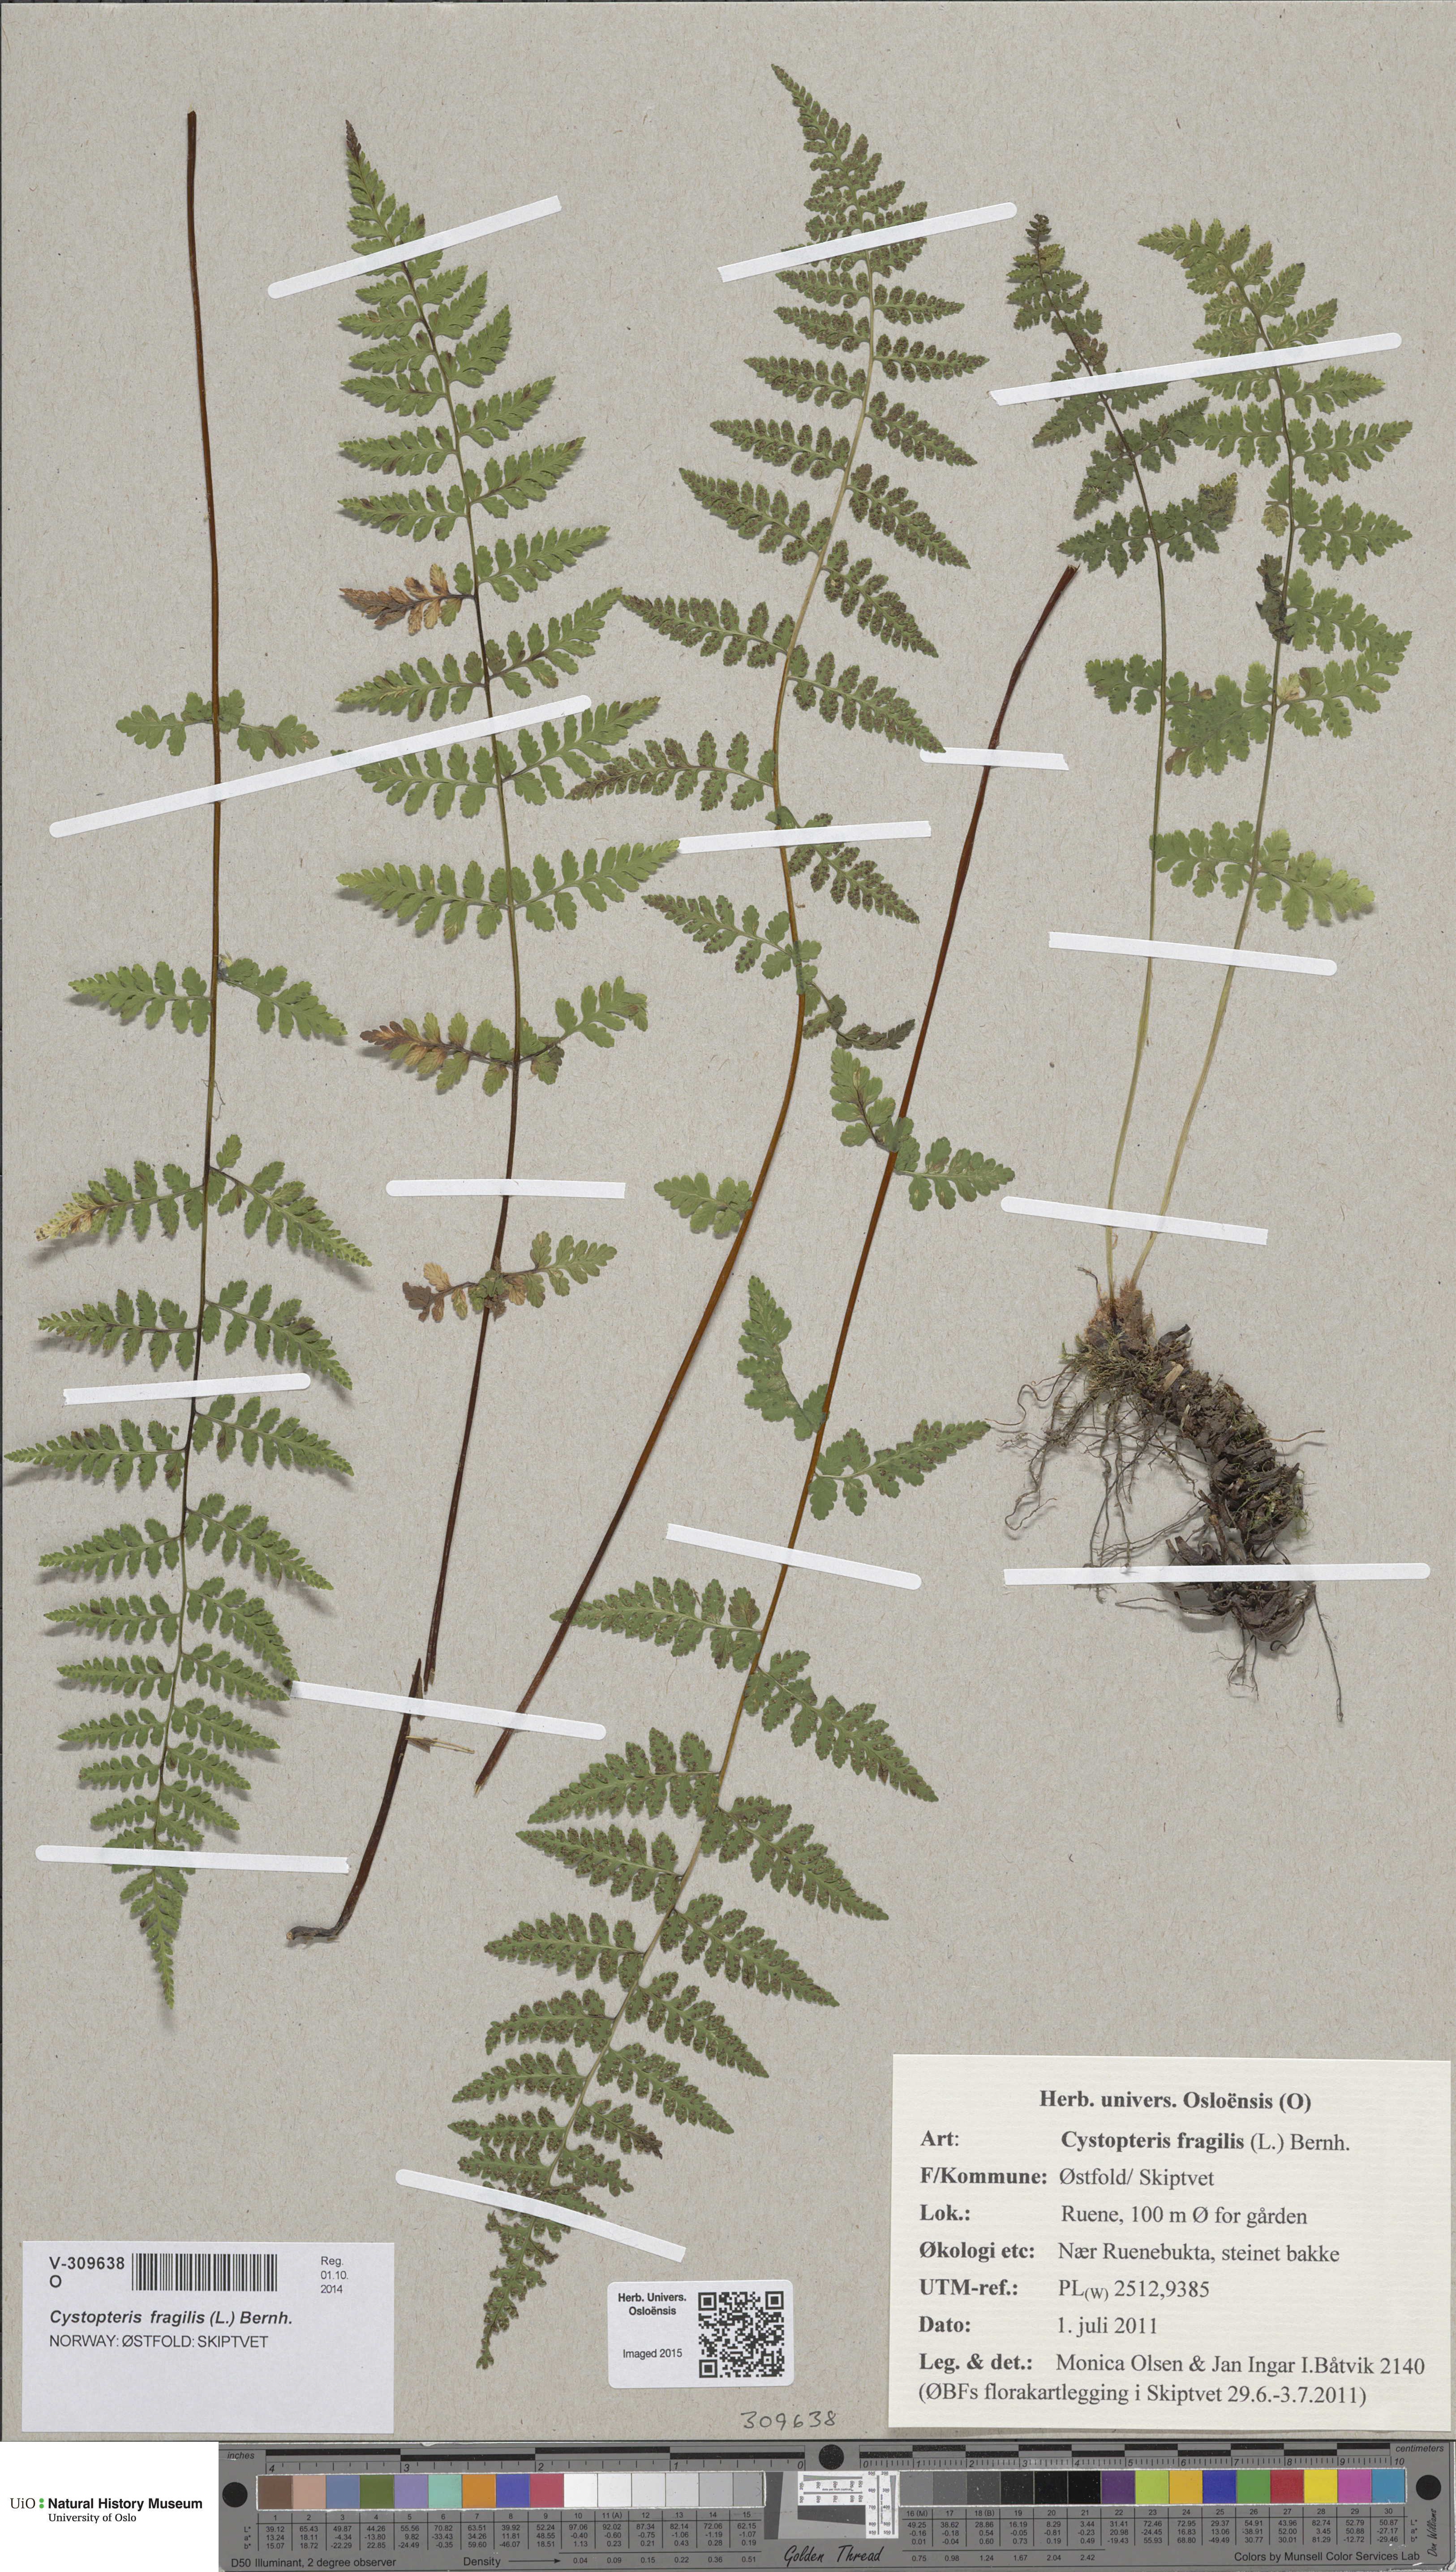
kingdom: Plantae
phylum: Tracheophyta
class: Polypodiopsida
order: Polypodiales
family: Cystopteridaceae
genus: Cystopteris
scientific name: Cystopteris fragilis
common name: Brittle bladder fern
